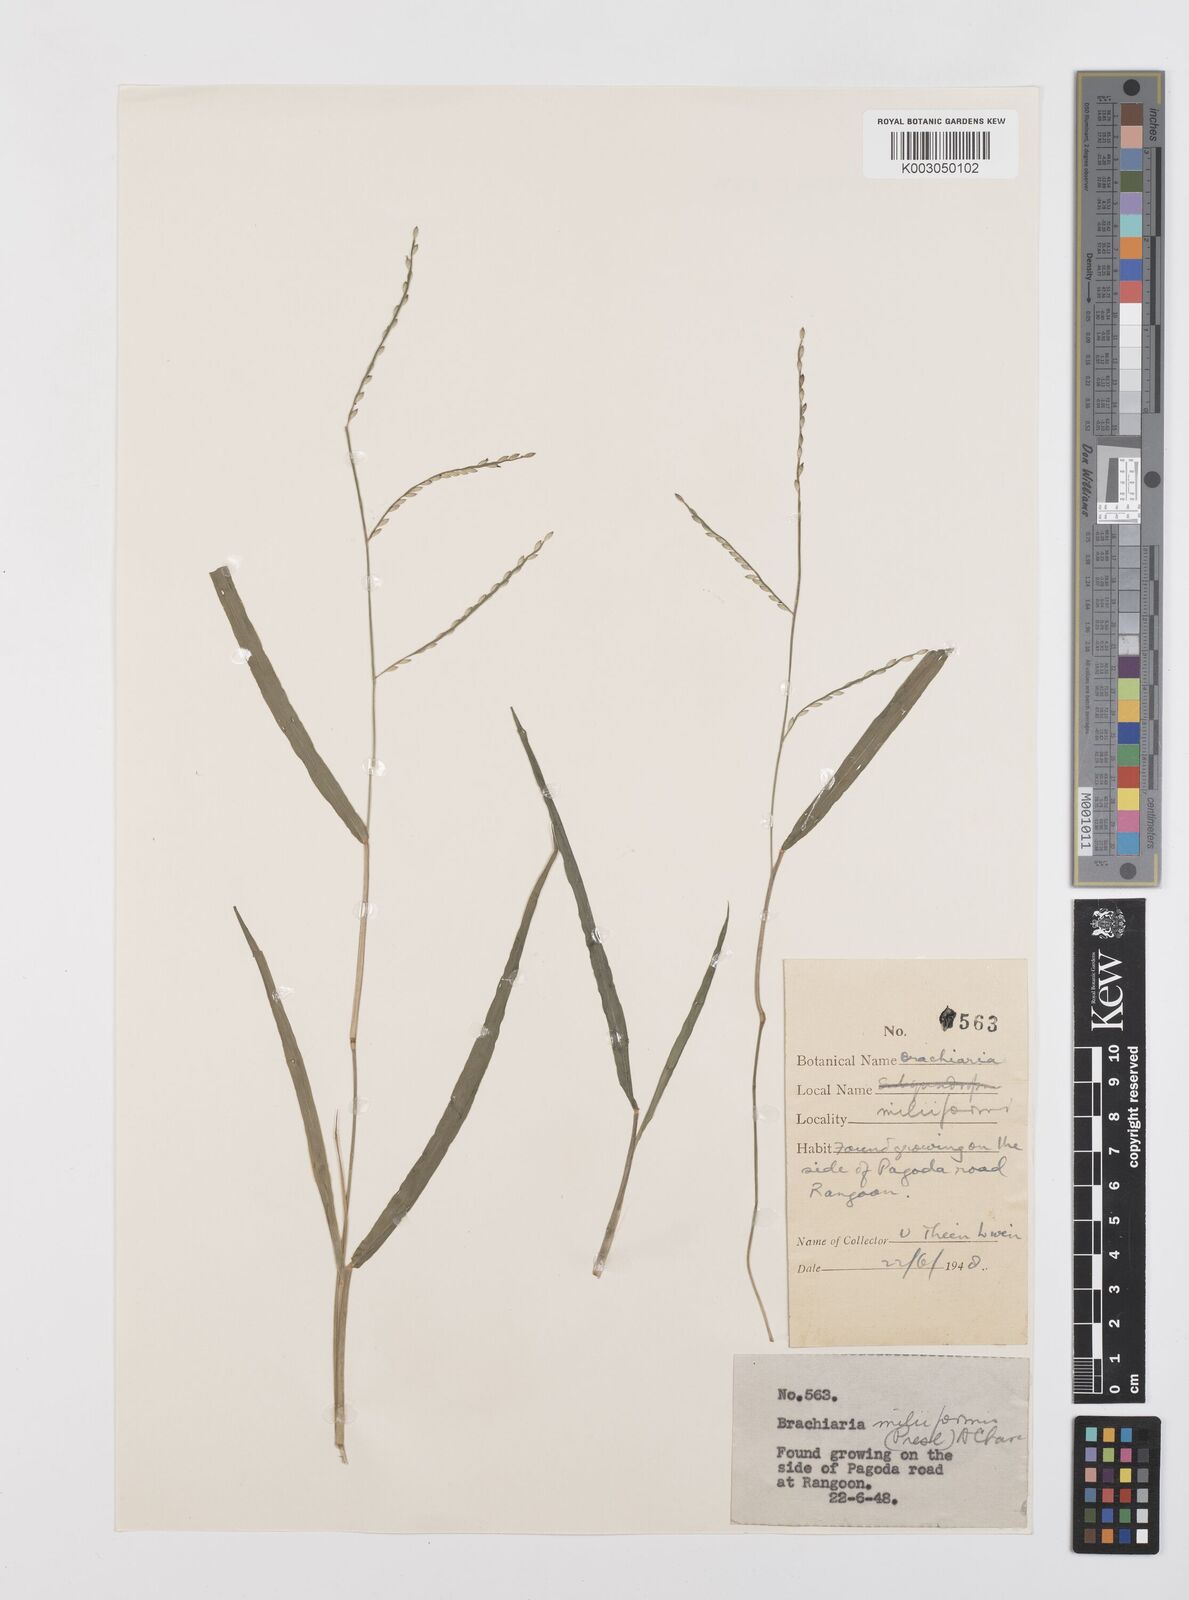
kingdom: Plantae
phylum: Tracheophyta
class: Liliopsida
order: Poales
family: Poaceae
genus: Urochloa
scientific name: Urochloa subquadripara
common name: Armgrass millet
